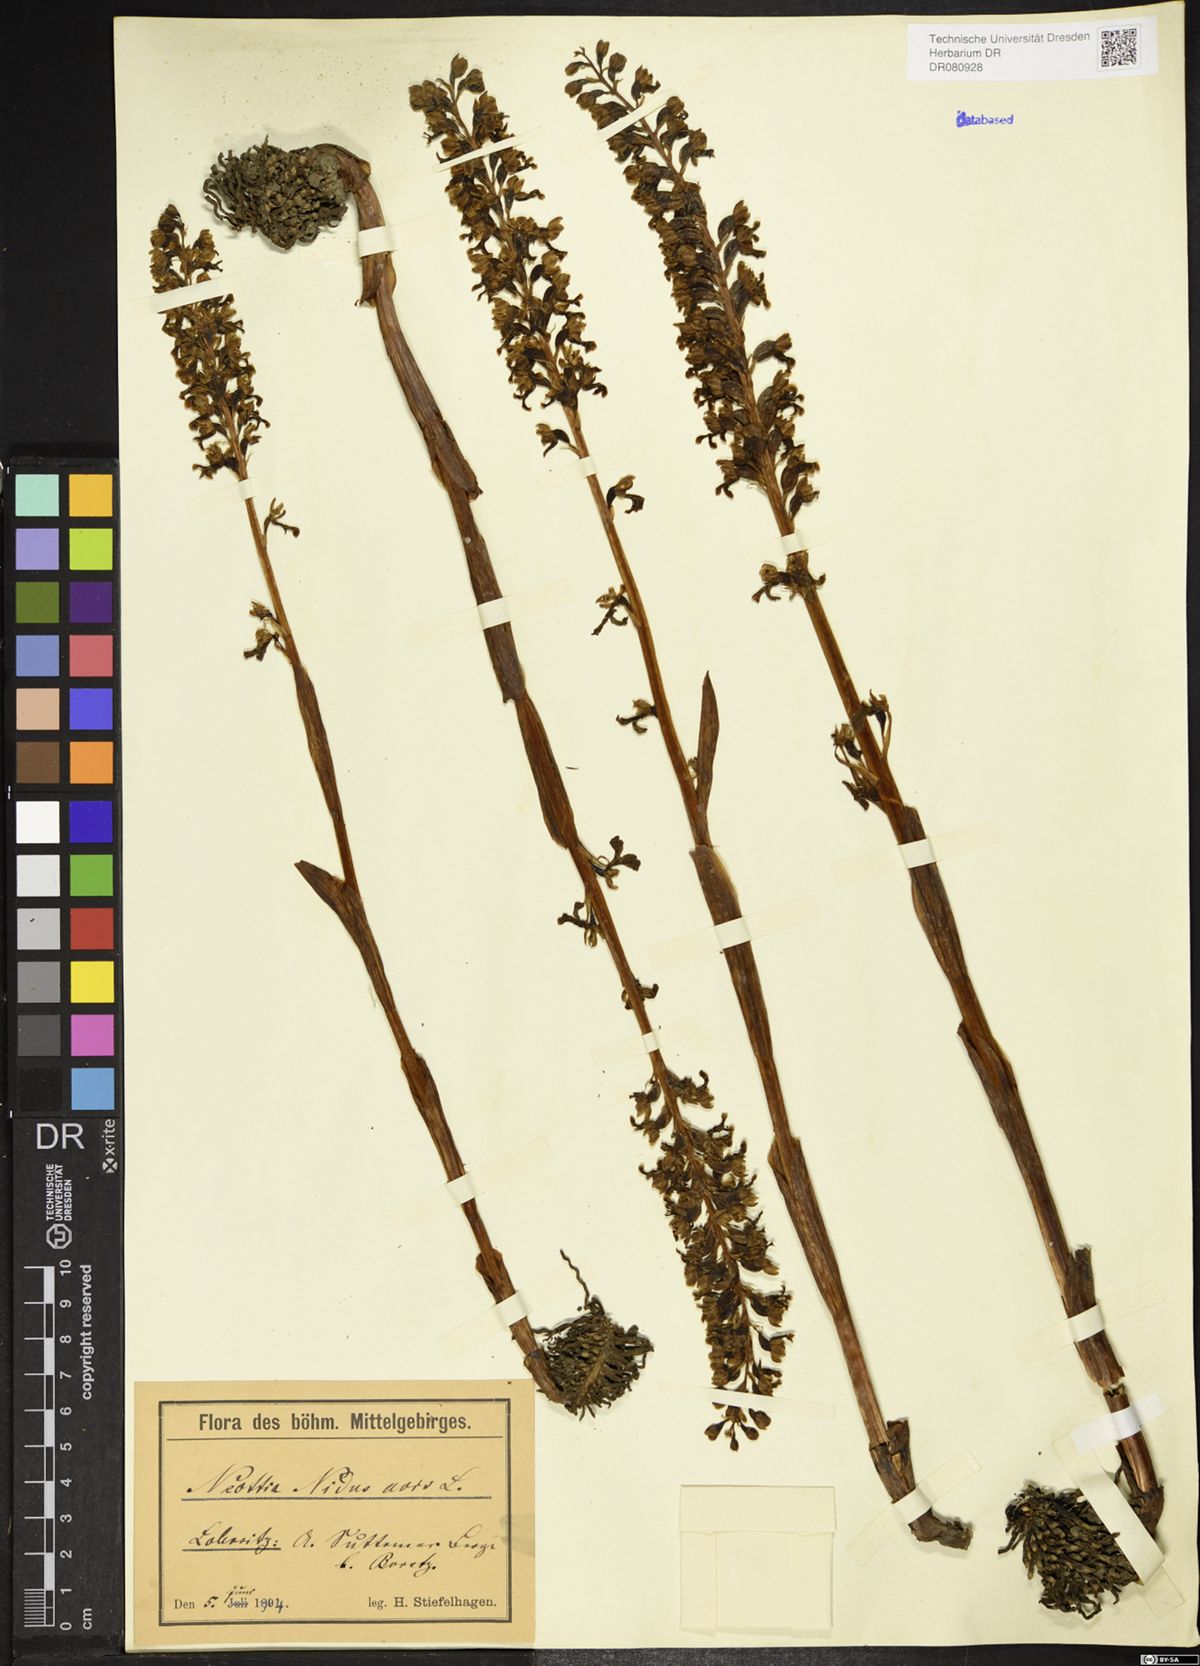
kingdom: Plantae
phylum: Tracheophyta
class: Liliopsida
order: Asparagales
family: Orchidaceae
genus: Neottia
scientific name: Neottia nidus-avis
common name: Bird's-nest orchid
